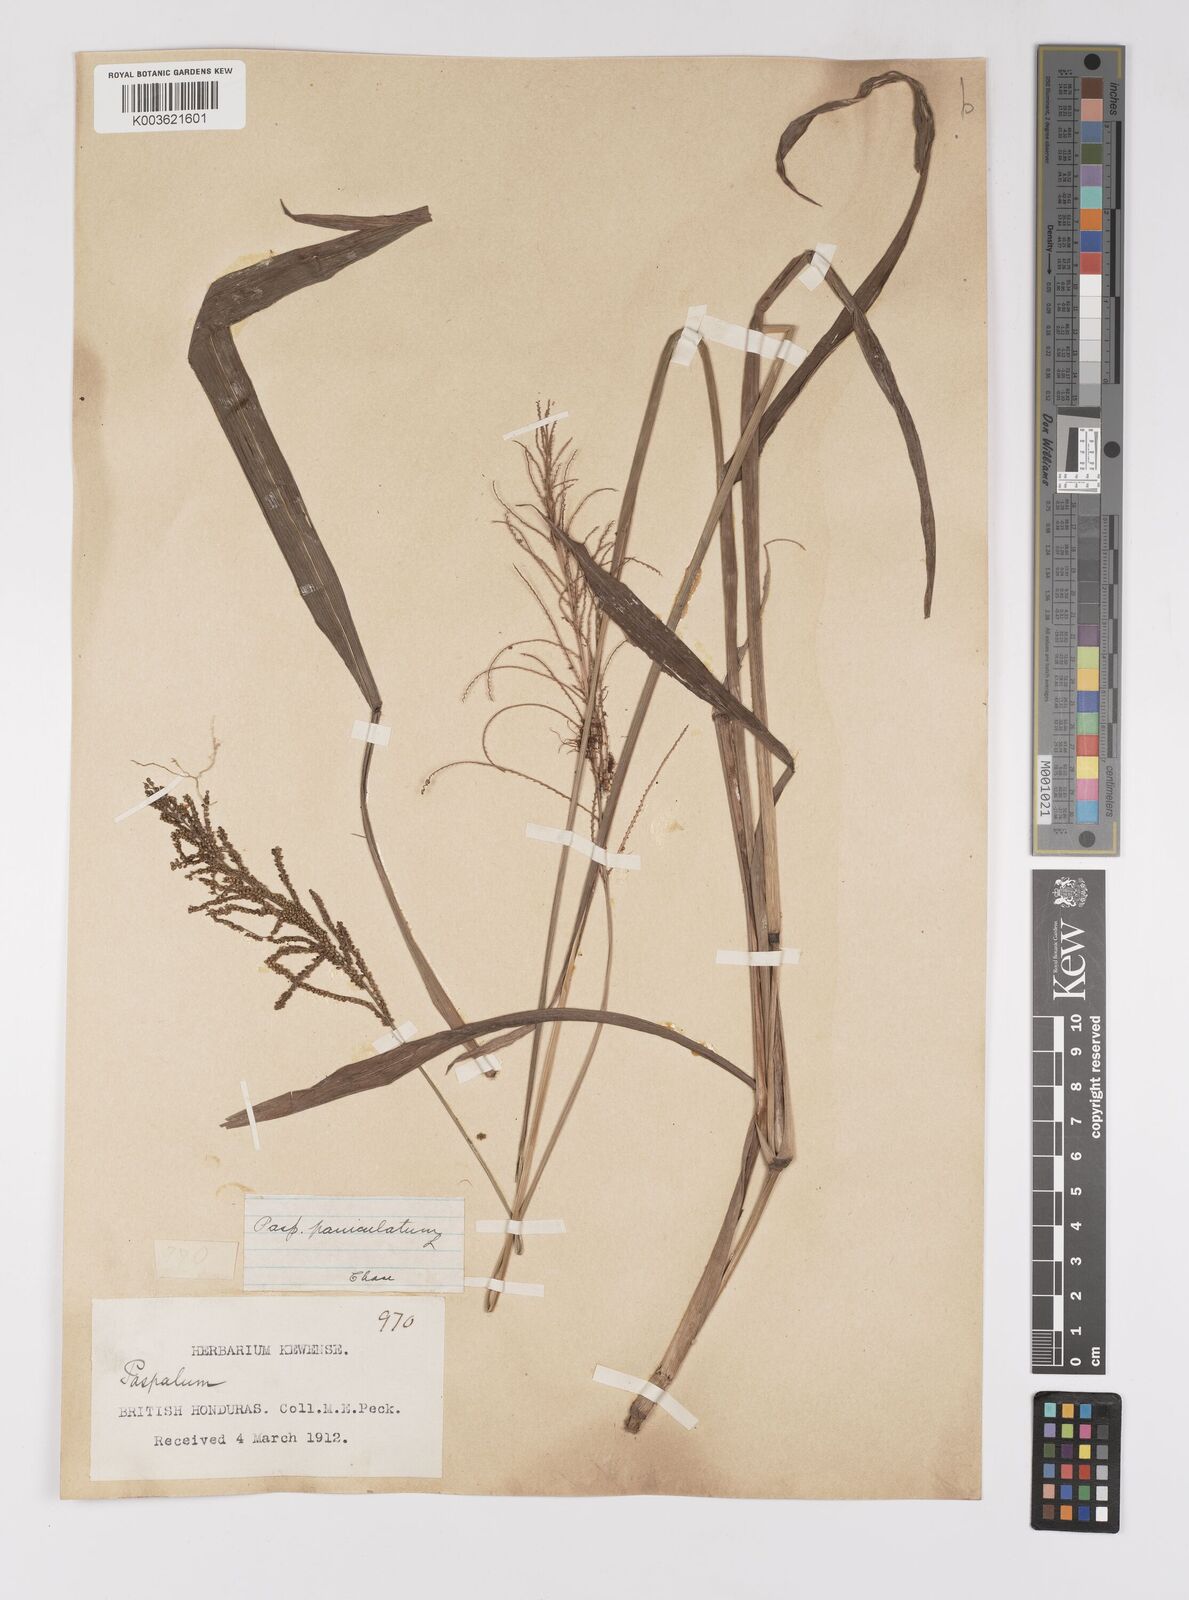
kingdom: Plantae
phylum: Tracheophyta
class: Liliopsida
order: Poales
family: Poaceae
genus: Paspalum
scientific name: Paspalum paniculatum
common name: Arrocillo
